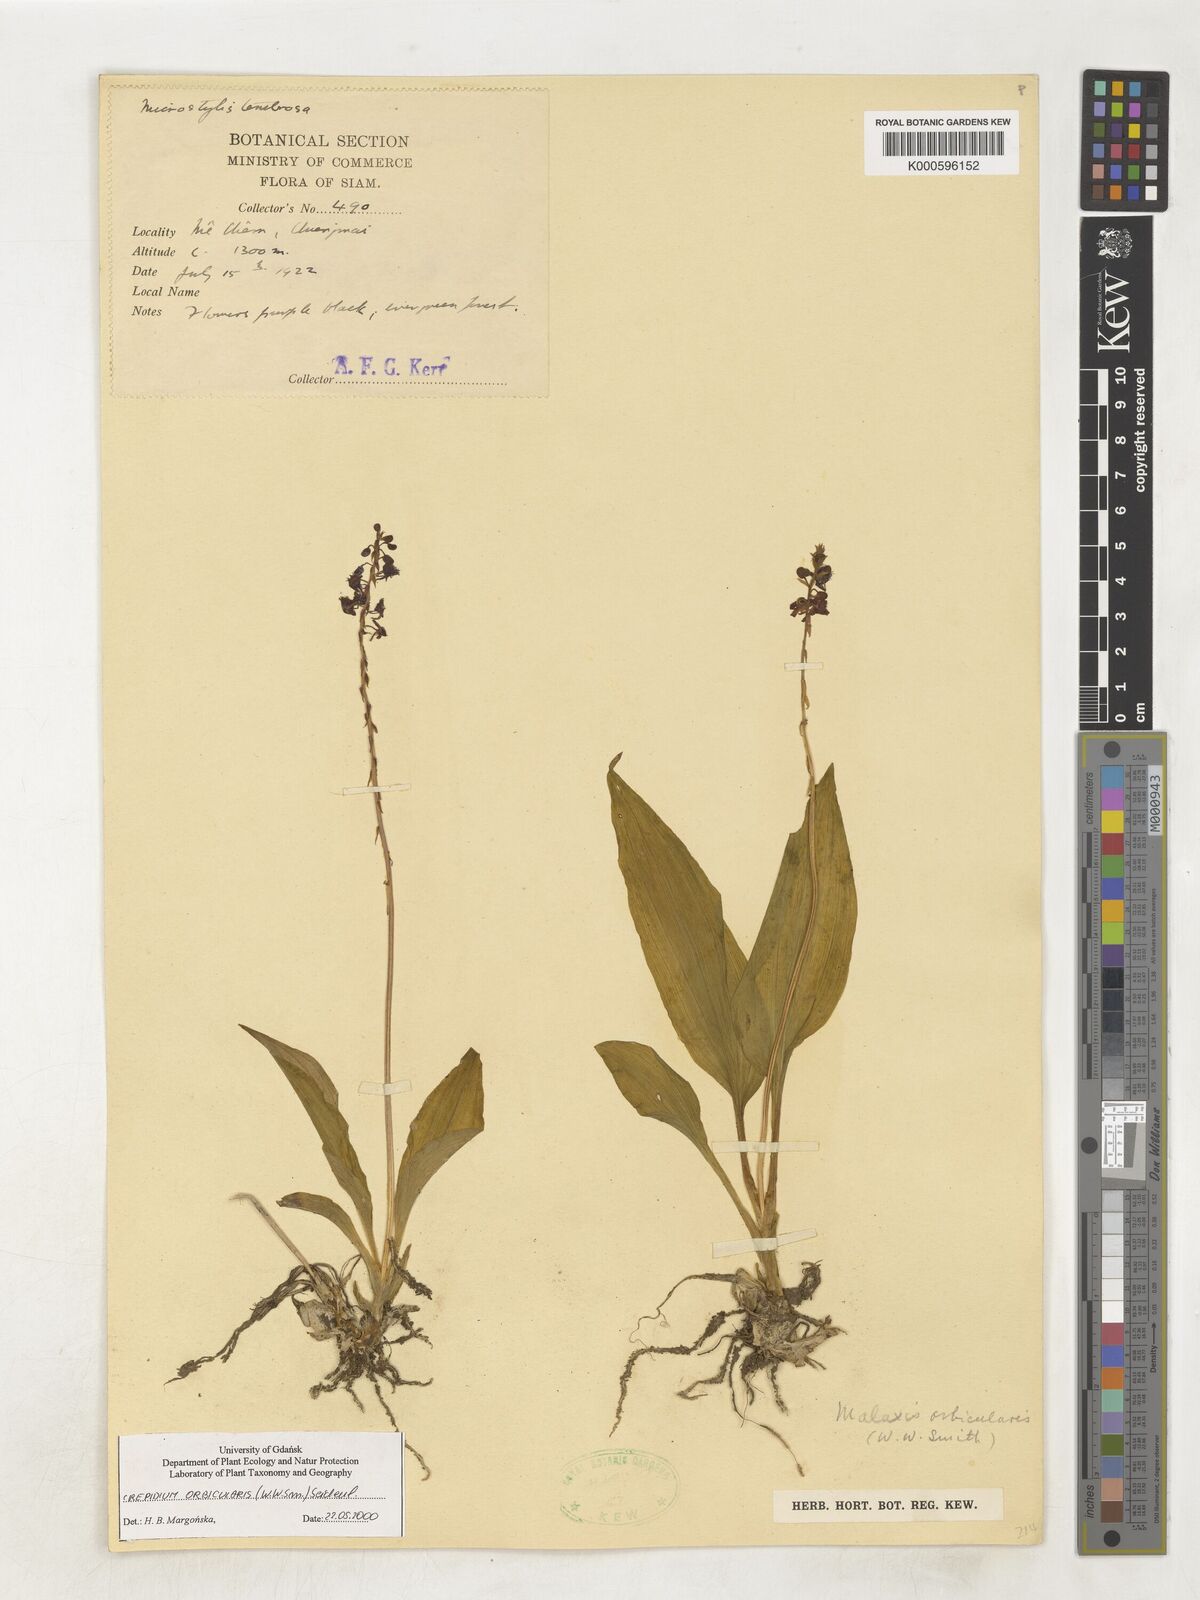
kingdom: Plantae
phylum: Tracheophyta
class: Liliopsida
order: Asparagales
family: Orchidaceae
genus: Crepidium
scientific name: Crepidium orbiculare
